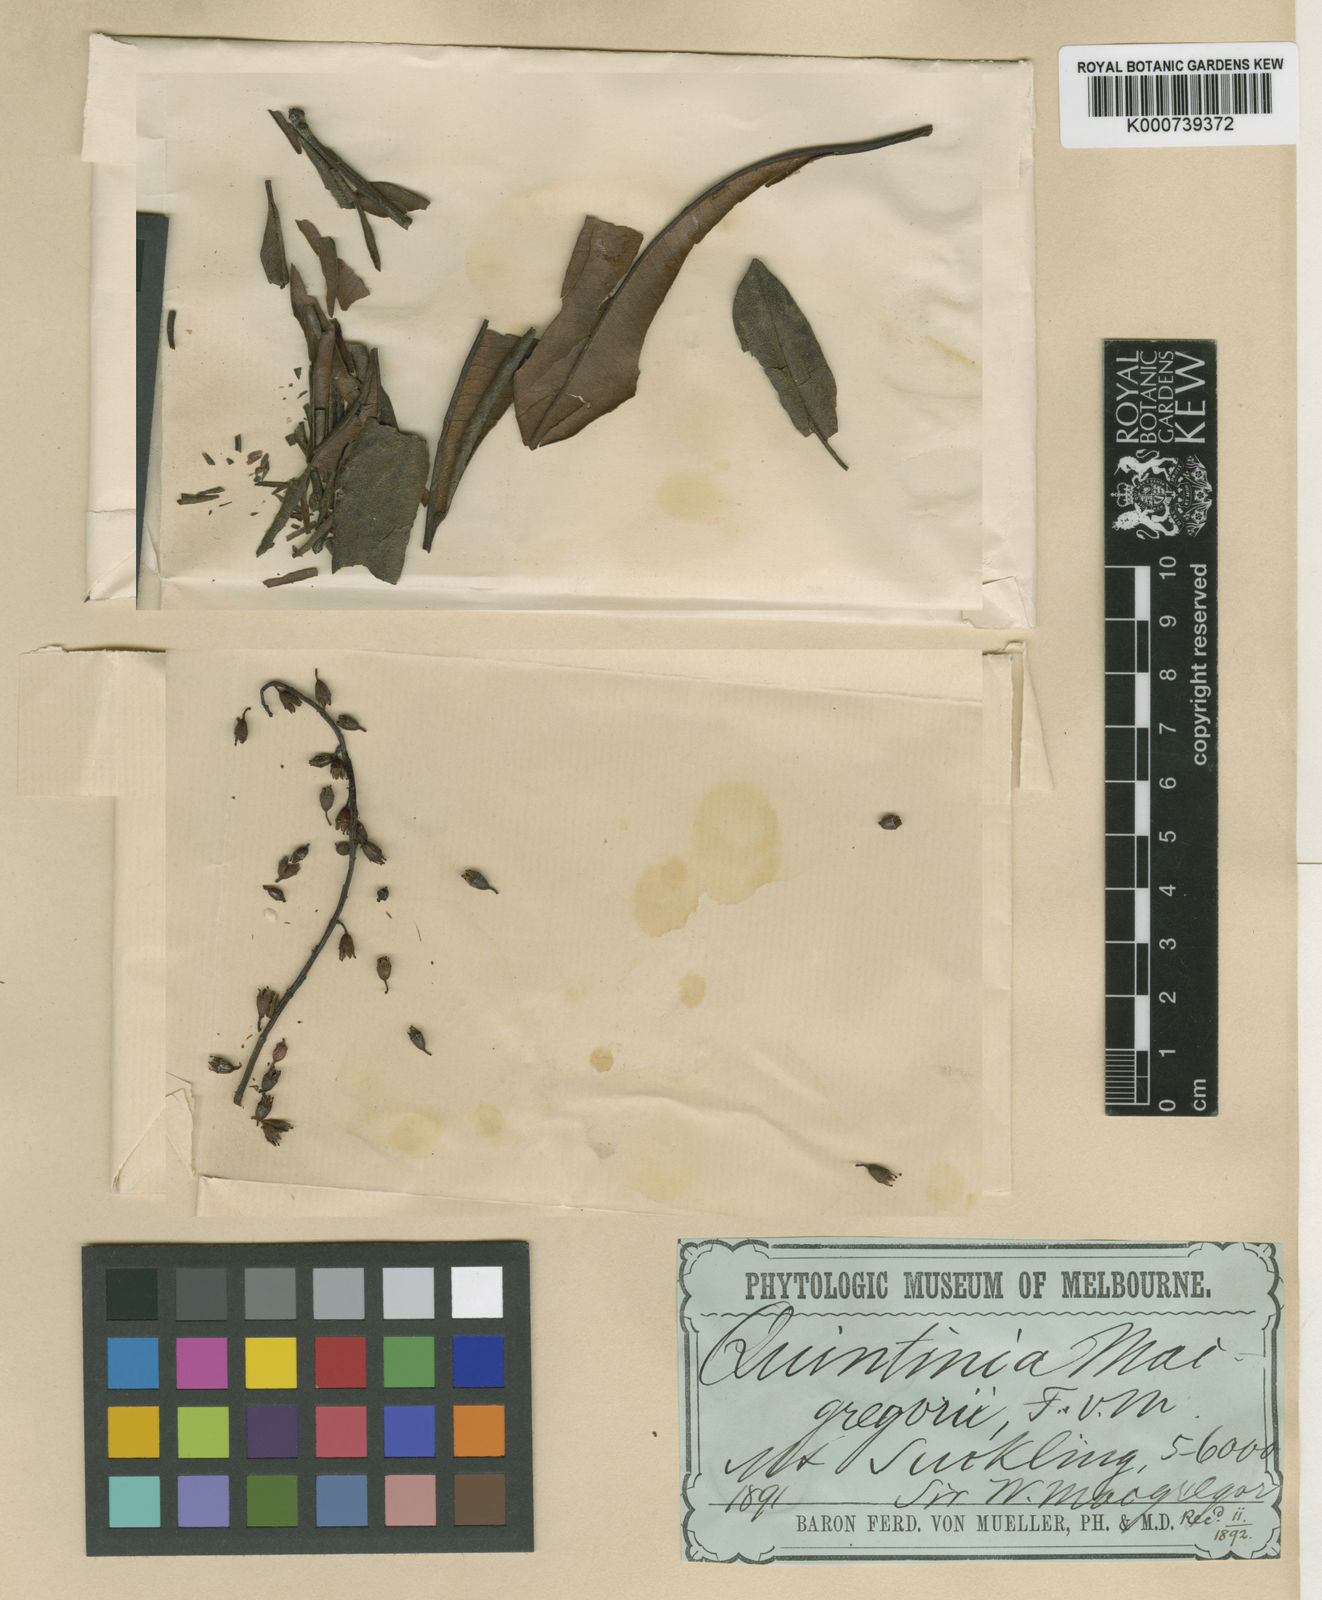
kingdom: Plantae
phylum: Tracheophyta
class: Magnoliopsida
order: Paracryphiales
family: Paracryphiaceae
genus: Quintinia
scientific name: Quintinia macgregorii
